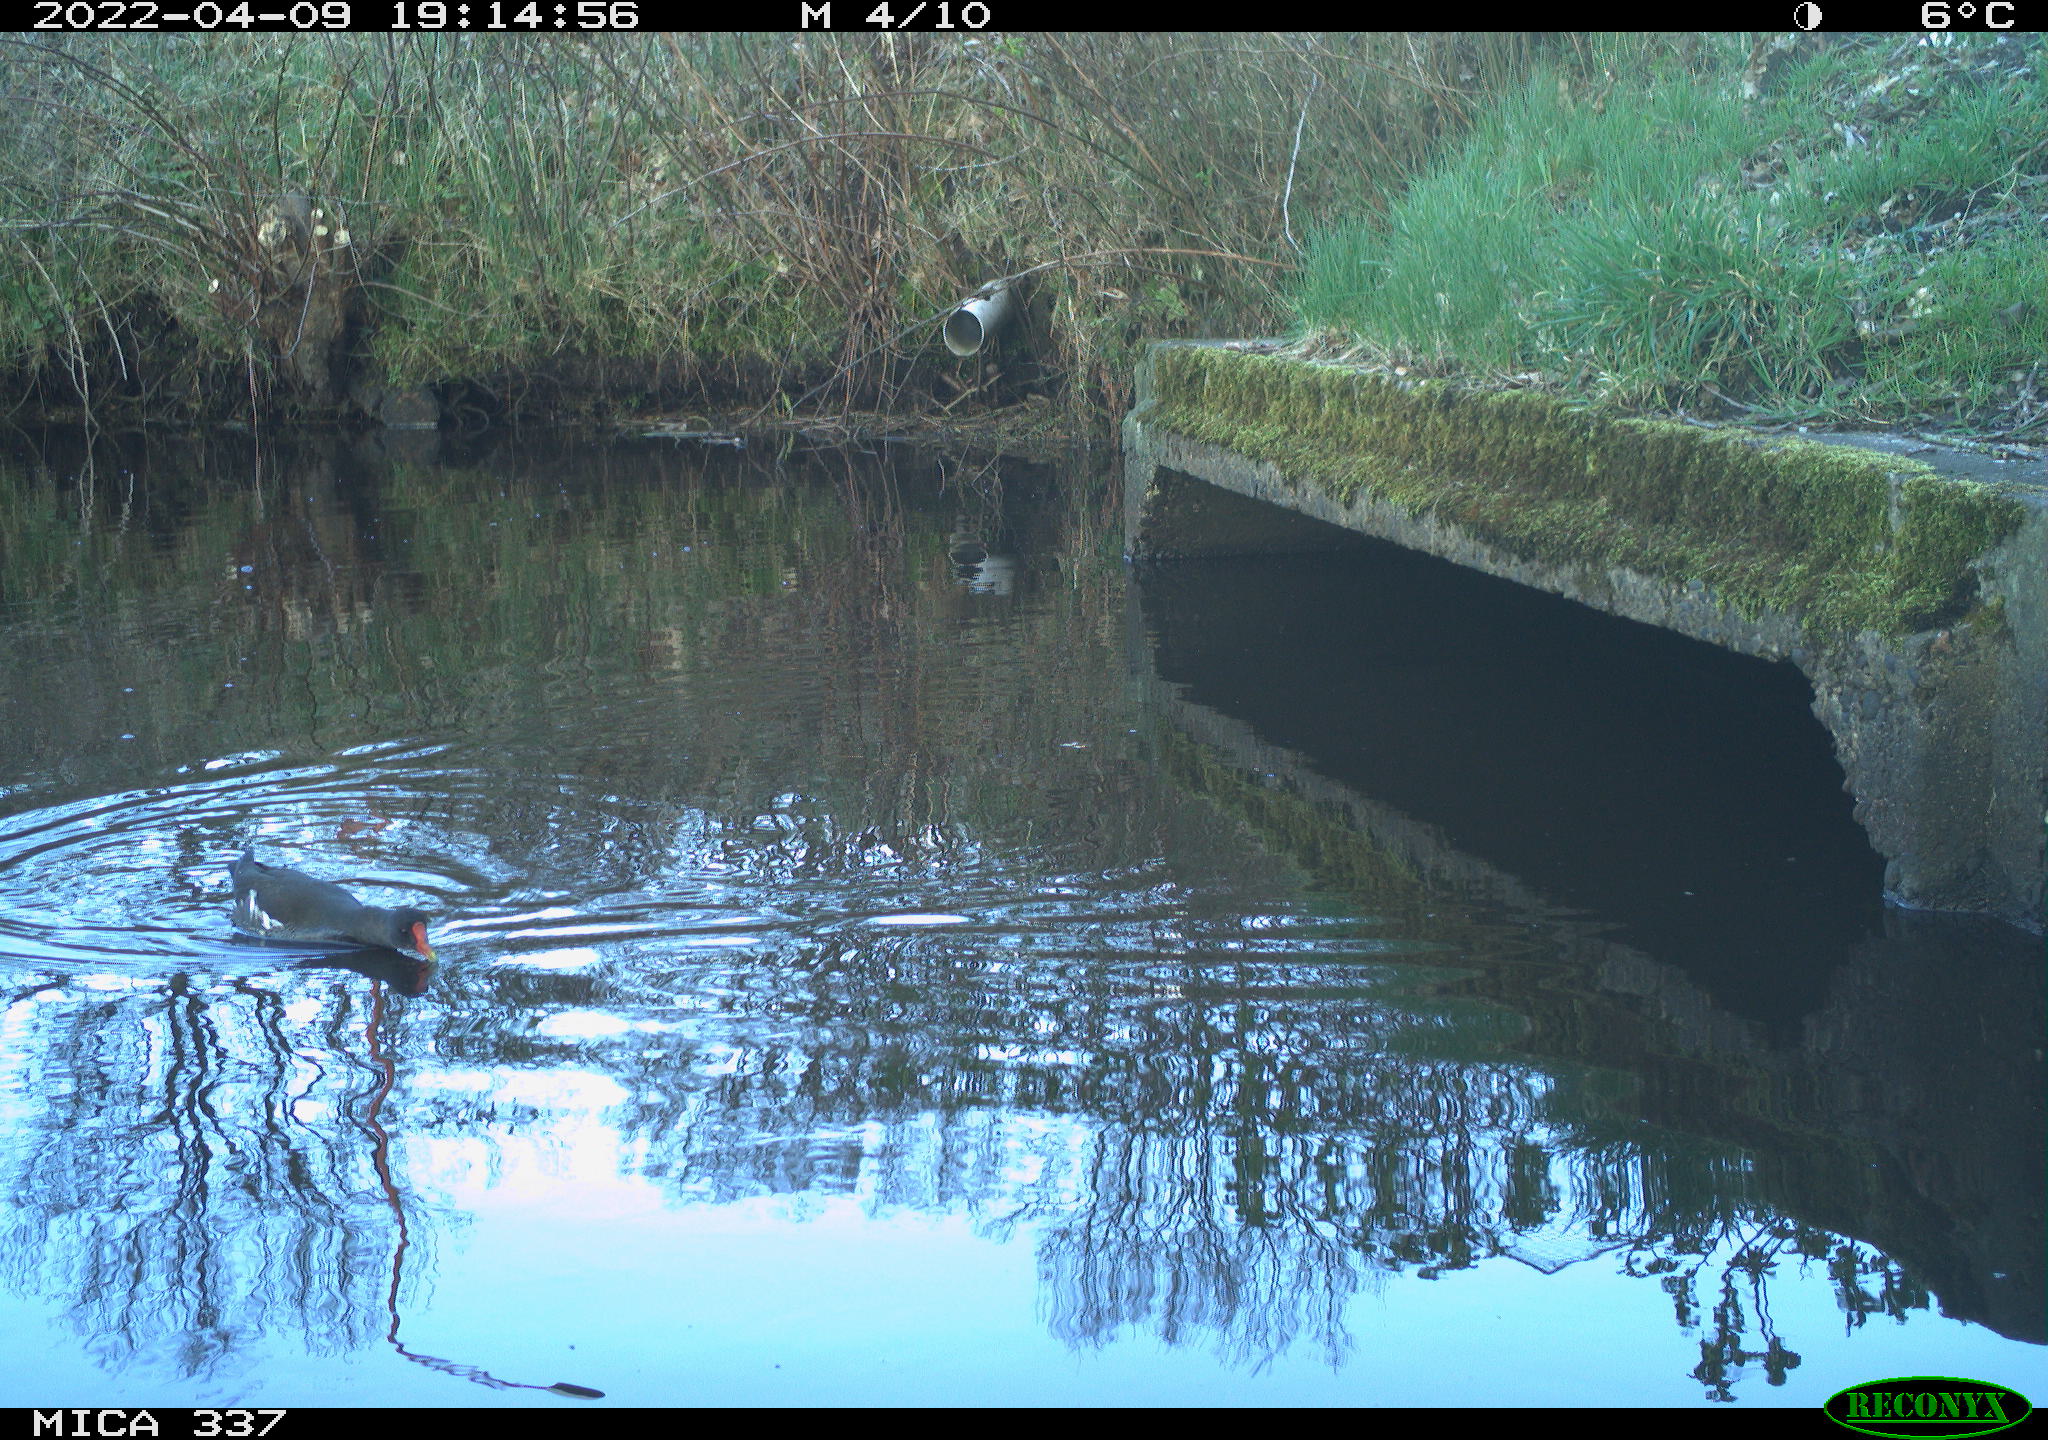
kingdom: Animalia
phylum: Chordata
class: Aves
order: Gruiformes
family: Rallidae
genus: Gallinula
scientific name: Gallinula chloropus
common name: Common moorhen
